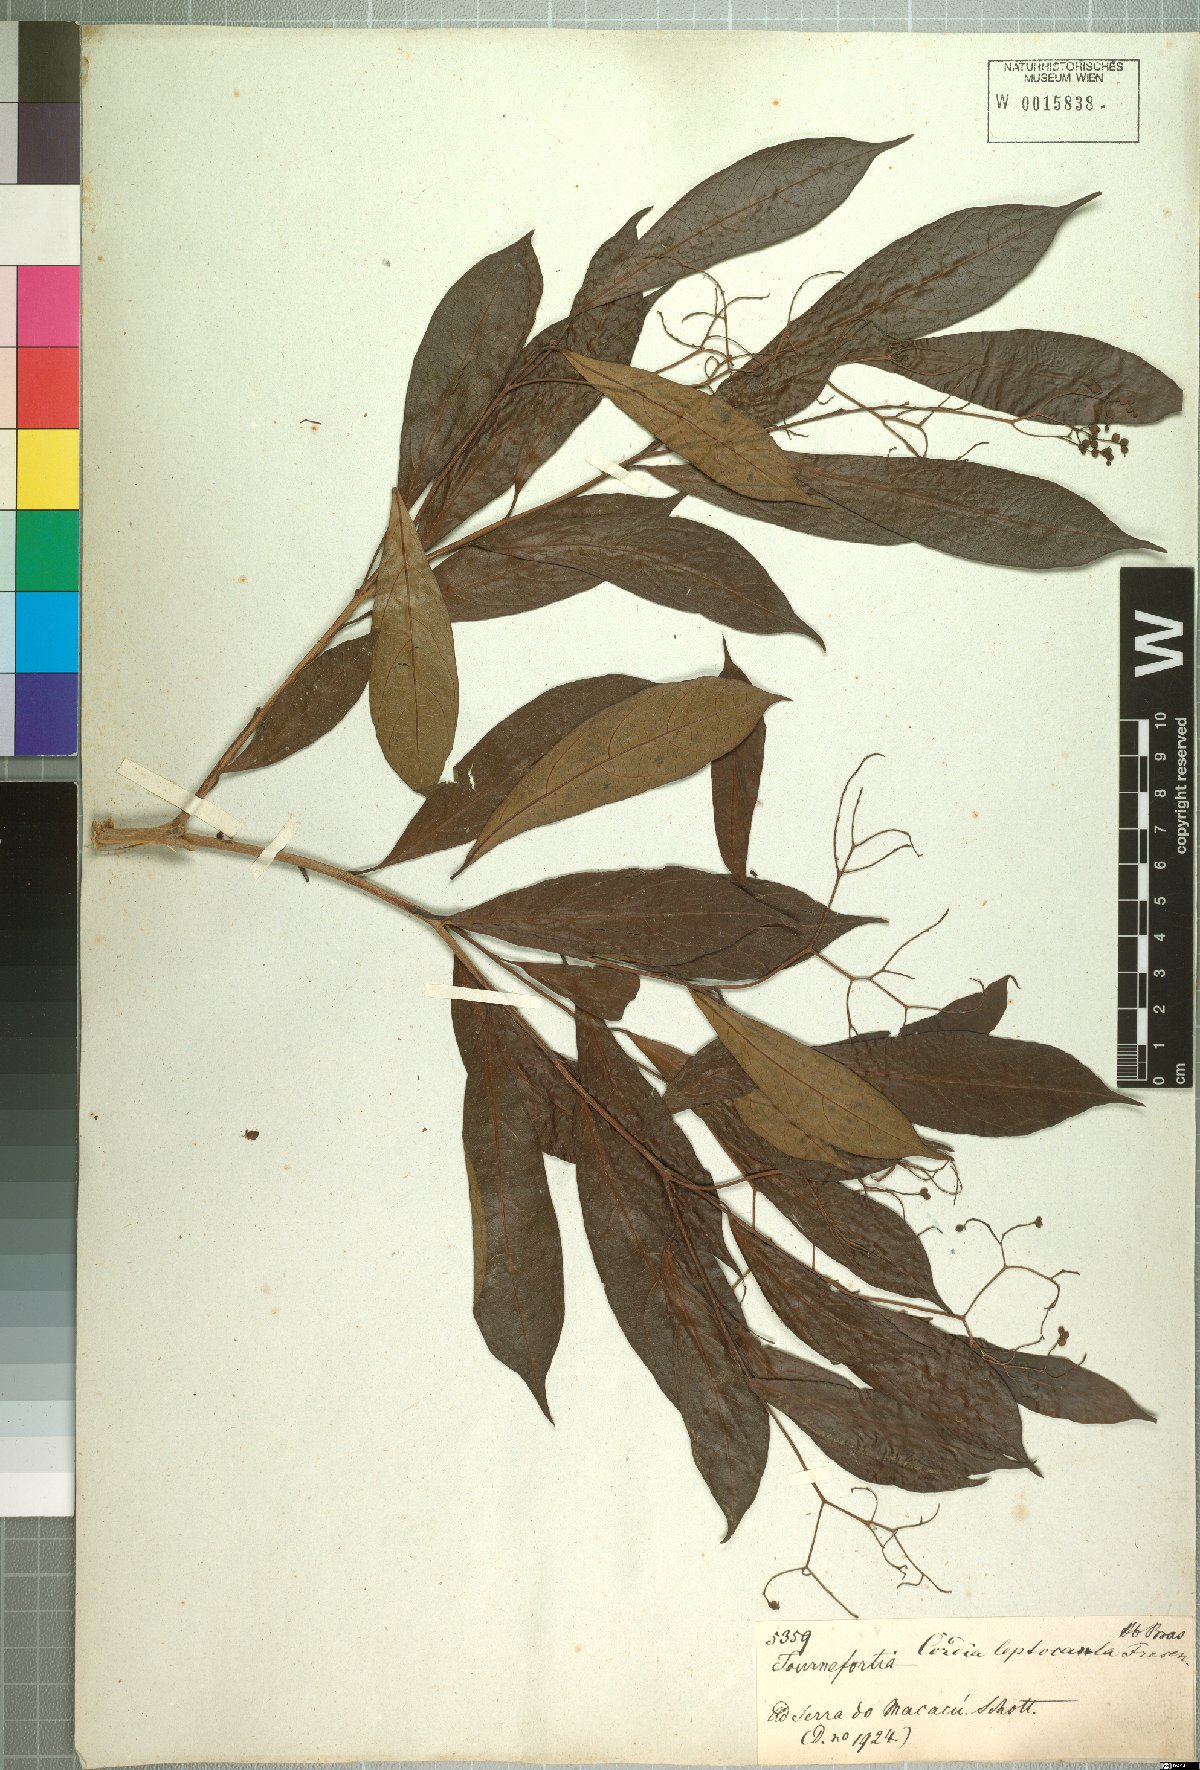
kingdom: Plantae
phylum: Tracheophyta
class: Magnoliopsida
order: Boraginales
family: Cordiaceae
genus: Cordia
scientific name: Cordia ecalyculata
